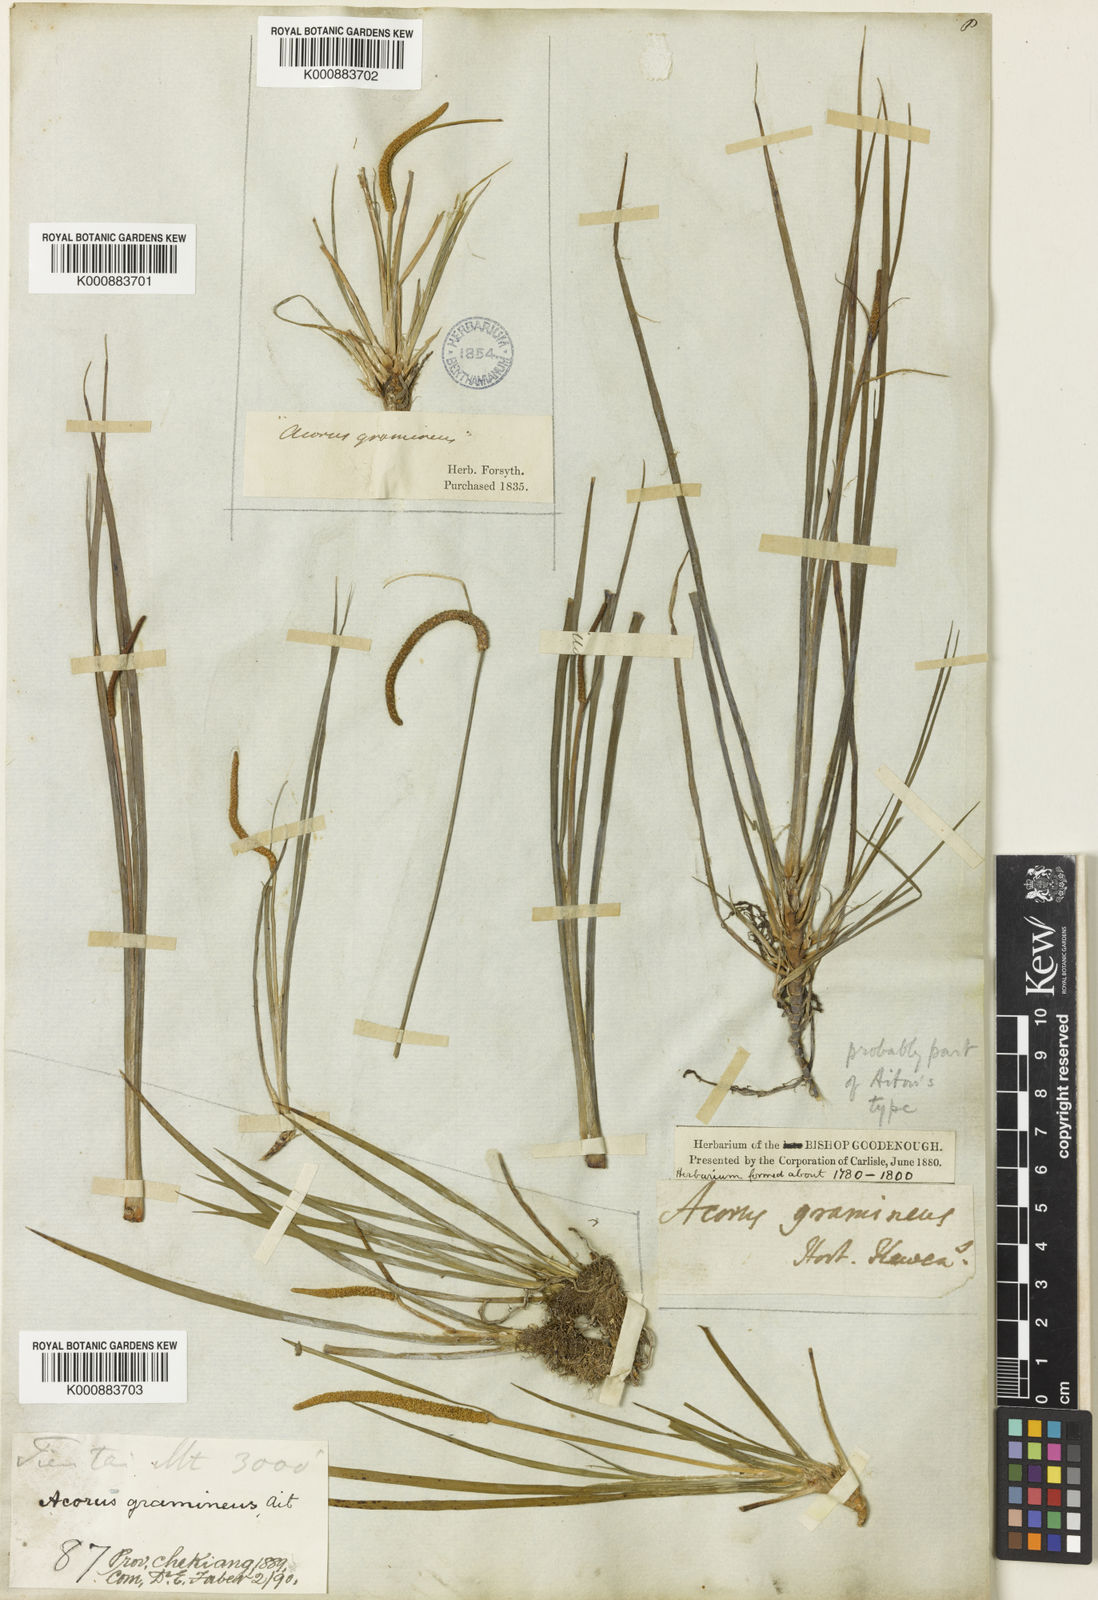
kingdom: Plantae
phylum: Tracheophyta
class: Liliopsida
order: Acorales
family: Acoraceae
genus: Acorus
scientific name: Acorus gramineus
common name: Slender sweet-flag
